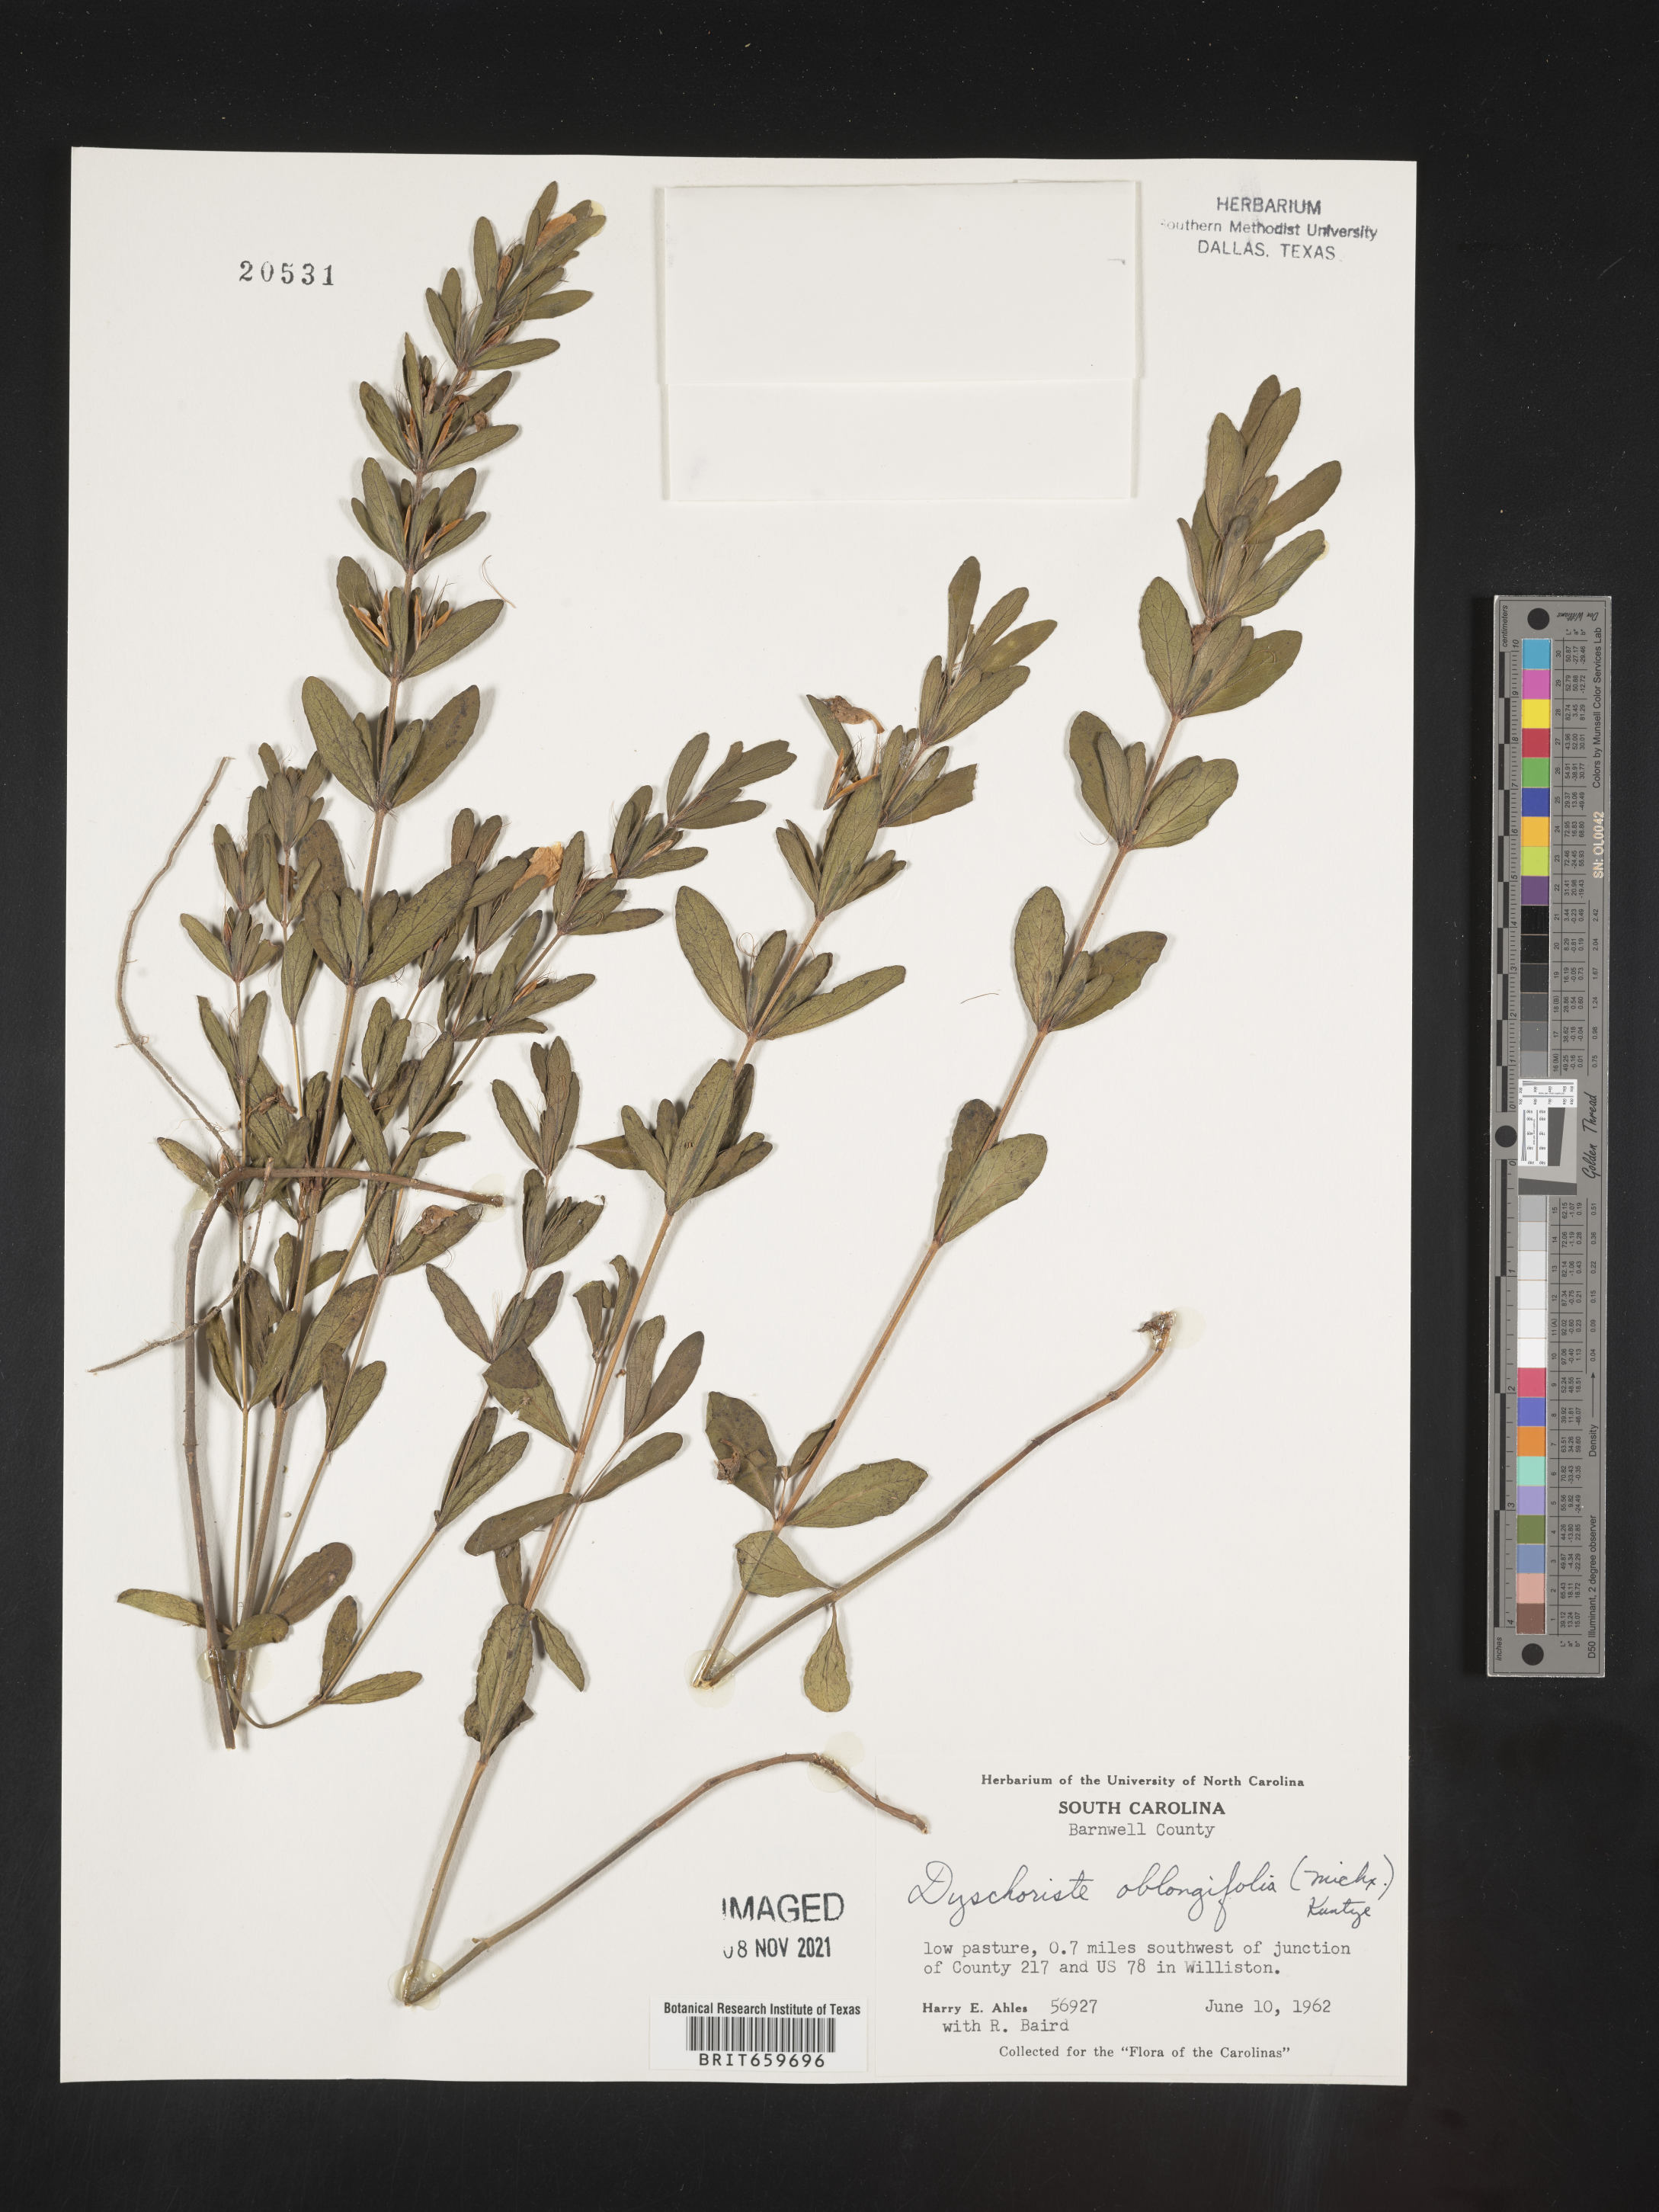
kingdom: Plantae
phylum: Tracheophyta
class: Magnoliopsida
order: Lamiales
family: Acanthaceae
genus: Dyschoriste
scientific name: Dyschoriste oblongifolia
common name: Blue twinflower
